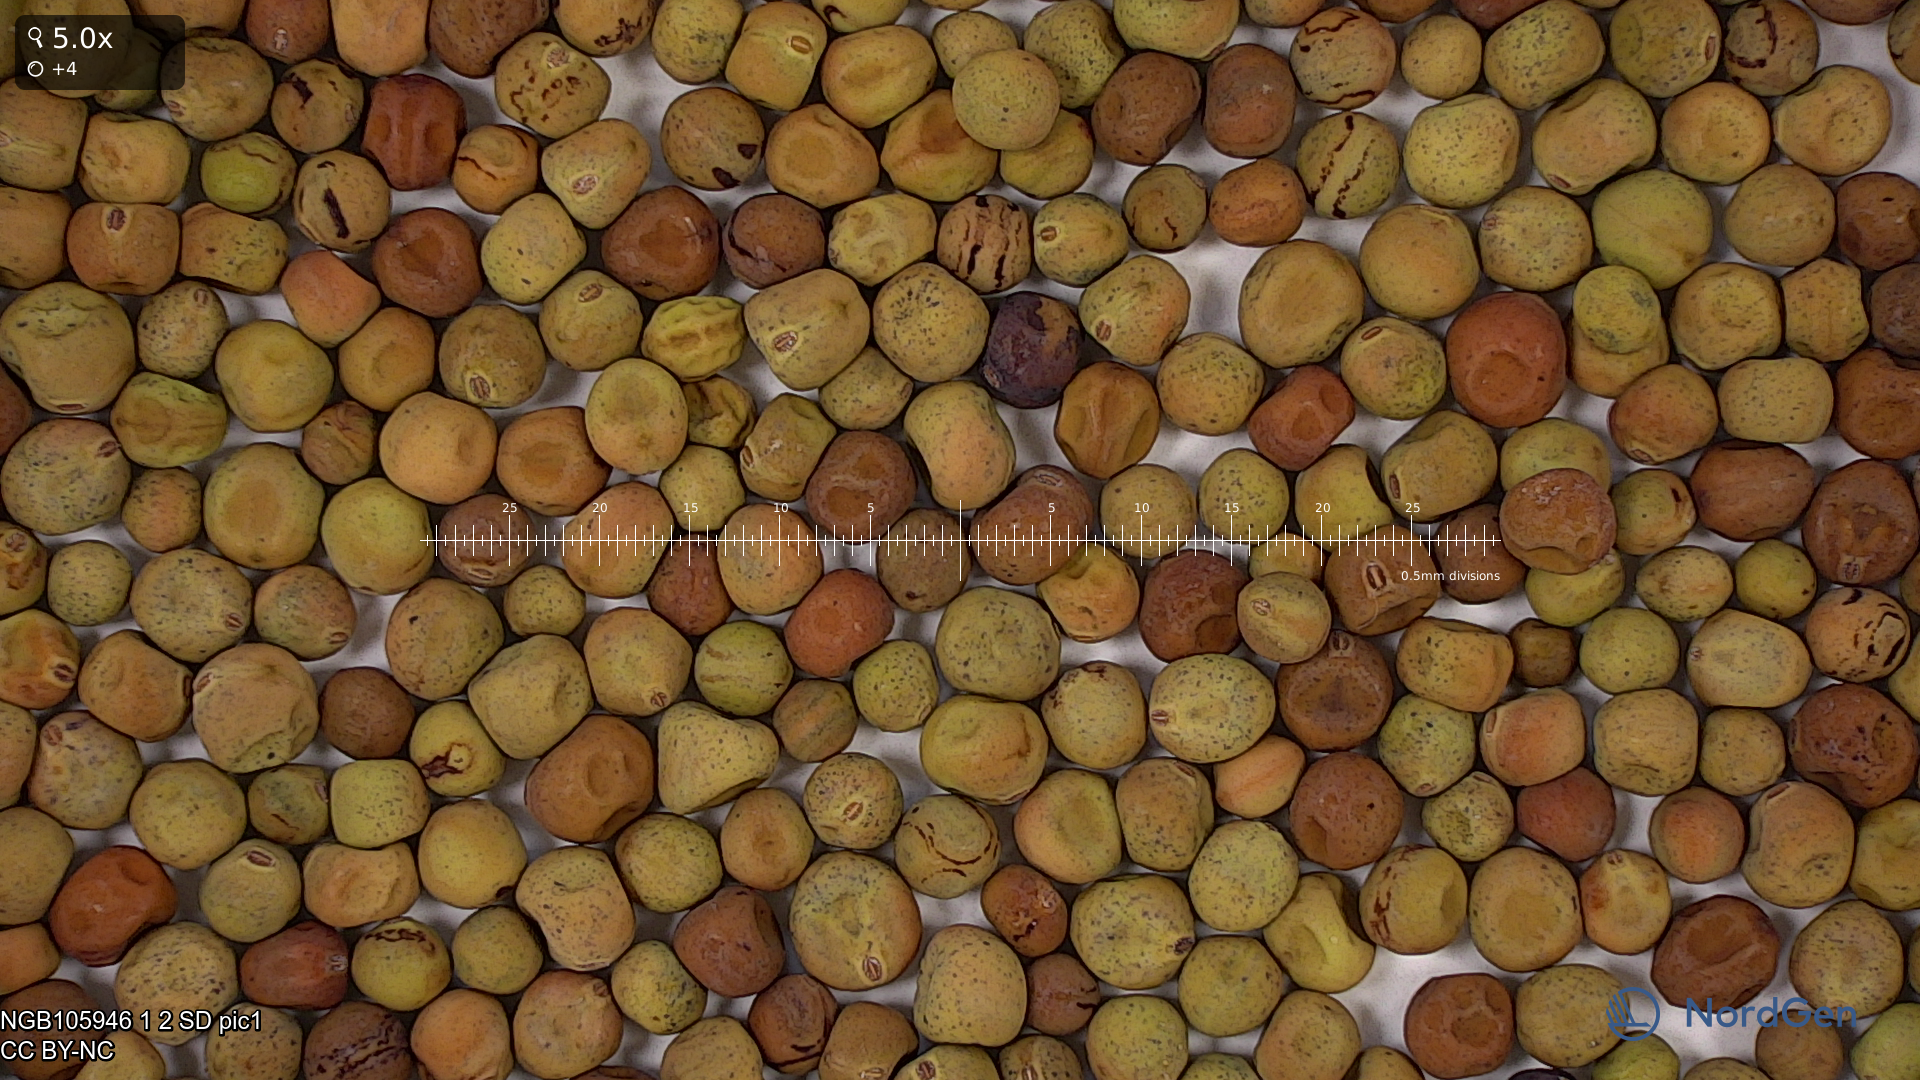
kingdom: Plantae
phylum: Tracheophyta
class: Magnoliopsida
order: Fabales
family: Fabaceae
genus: Lathyrus
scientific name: Lathyrus oleraceus
